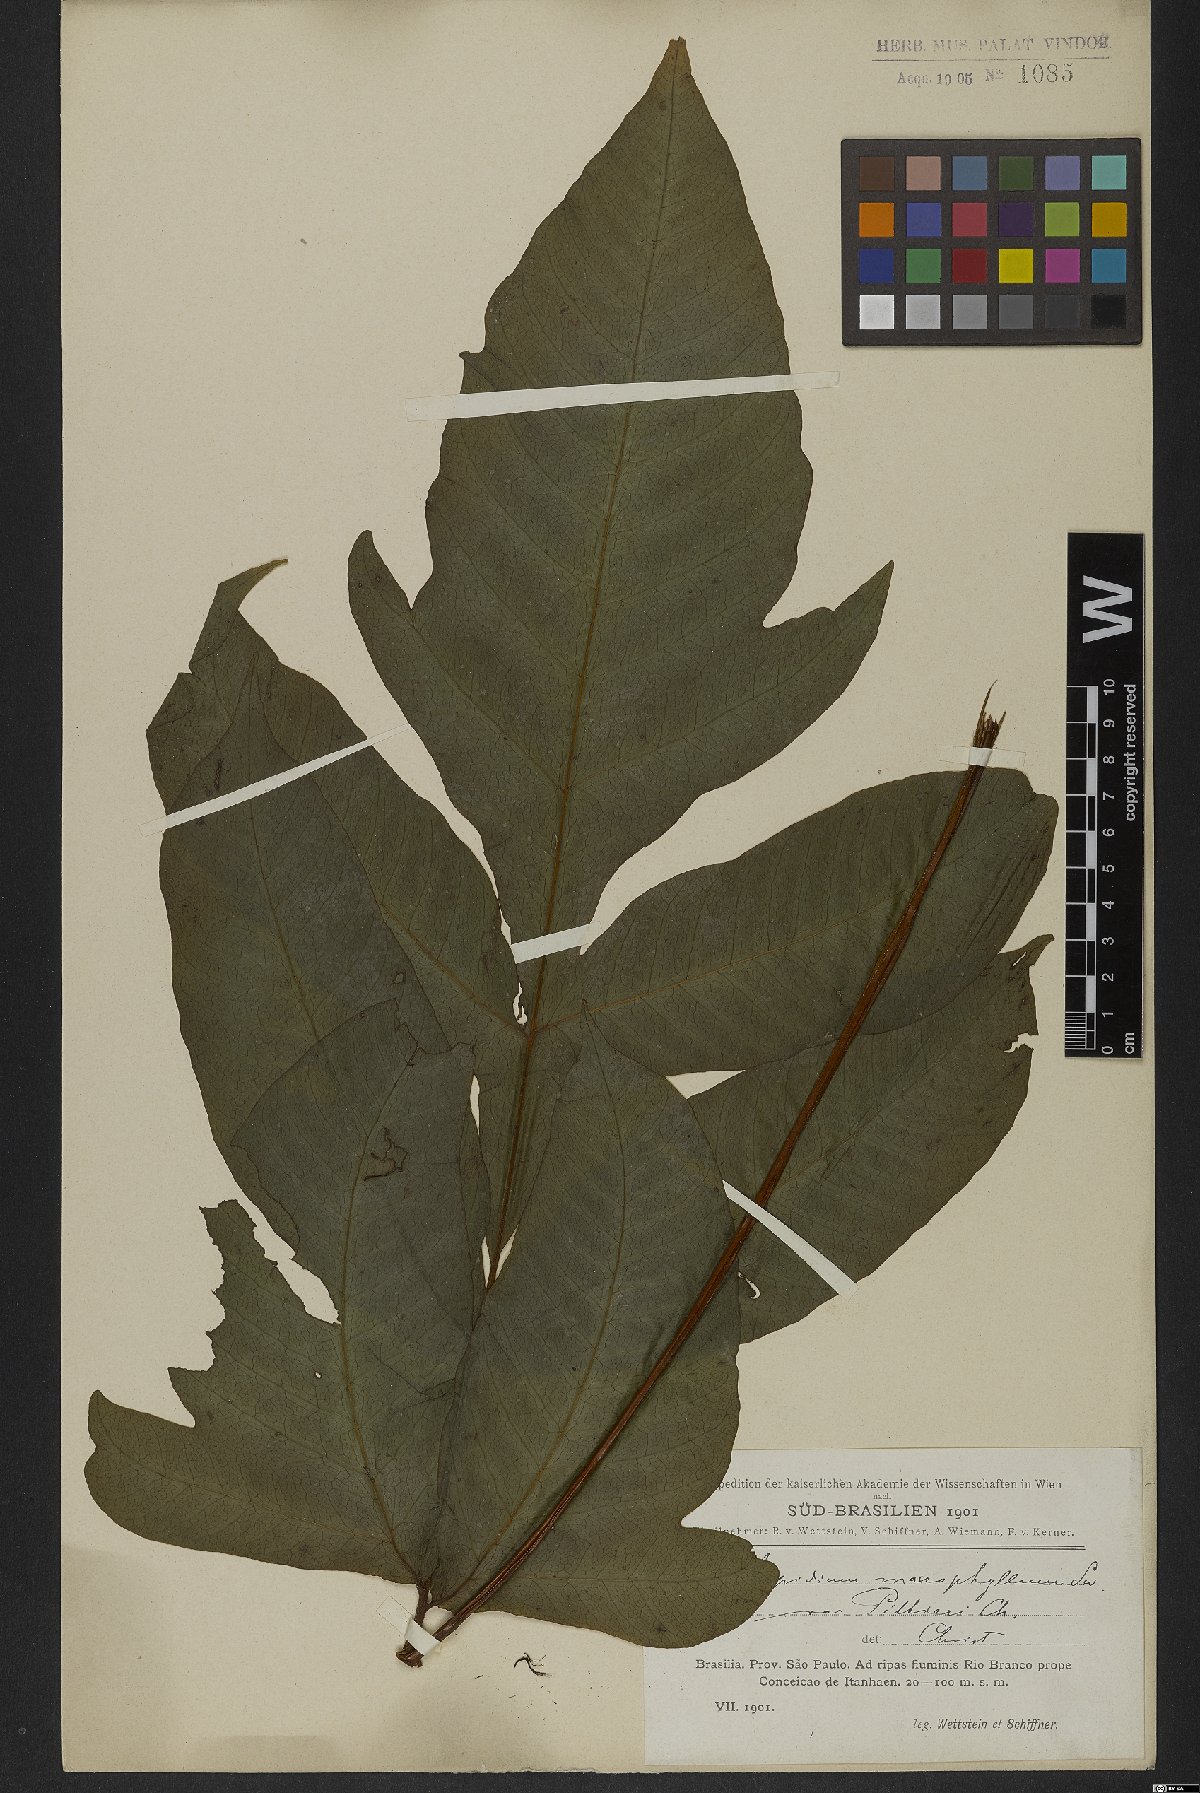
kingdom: Plantae
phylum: Tracheophyta
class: Polypodiopsida
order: Polypodiales
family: Tectariaceae
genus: Tectaria
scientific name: Tectaria incisa
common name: Incised halberd fern
